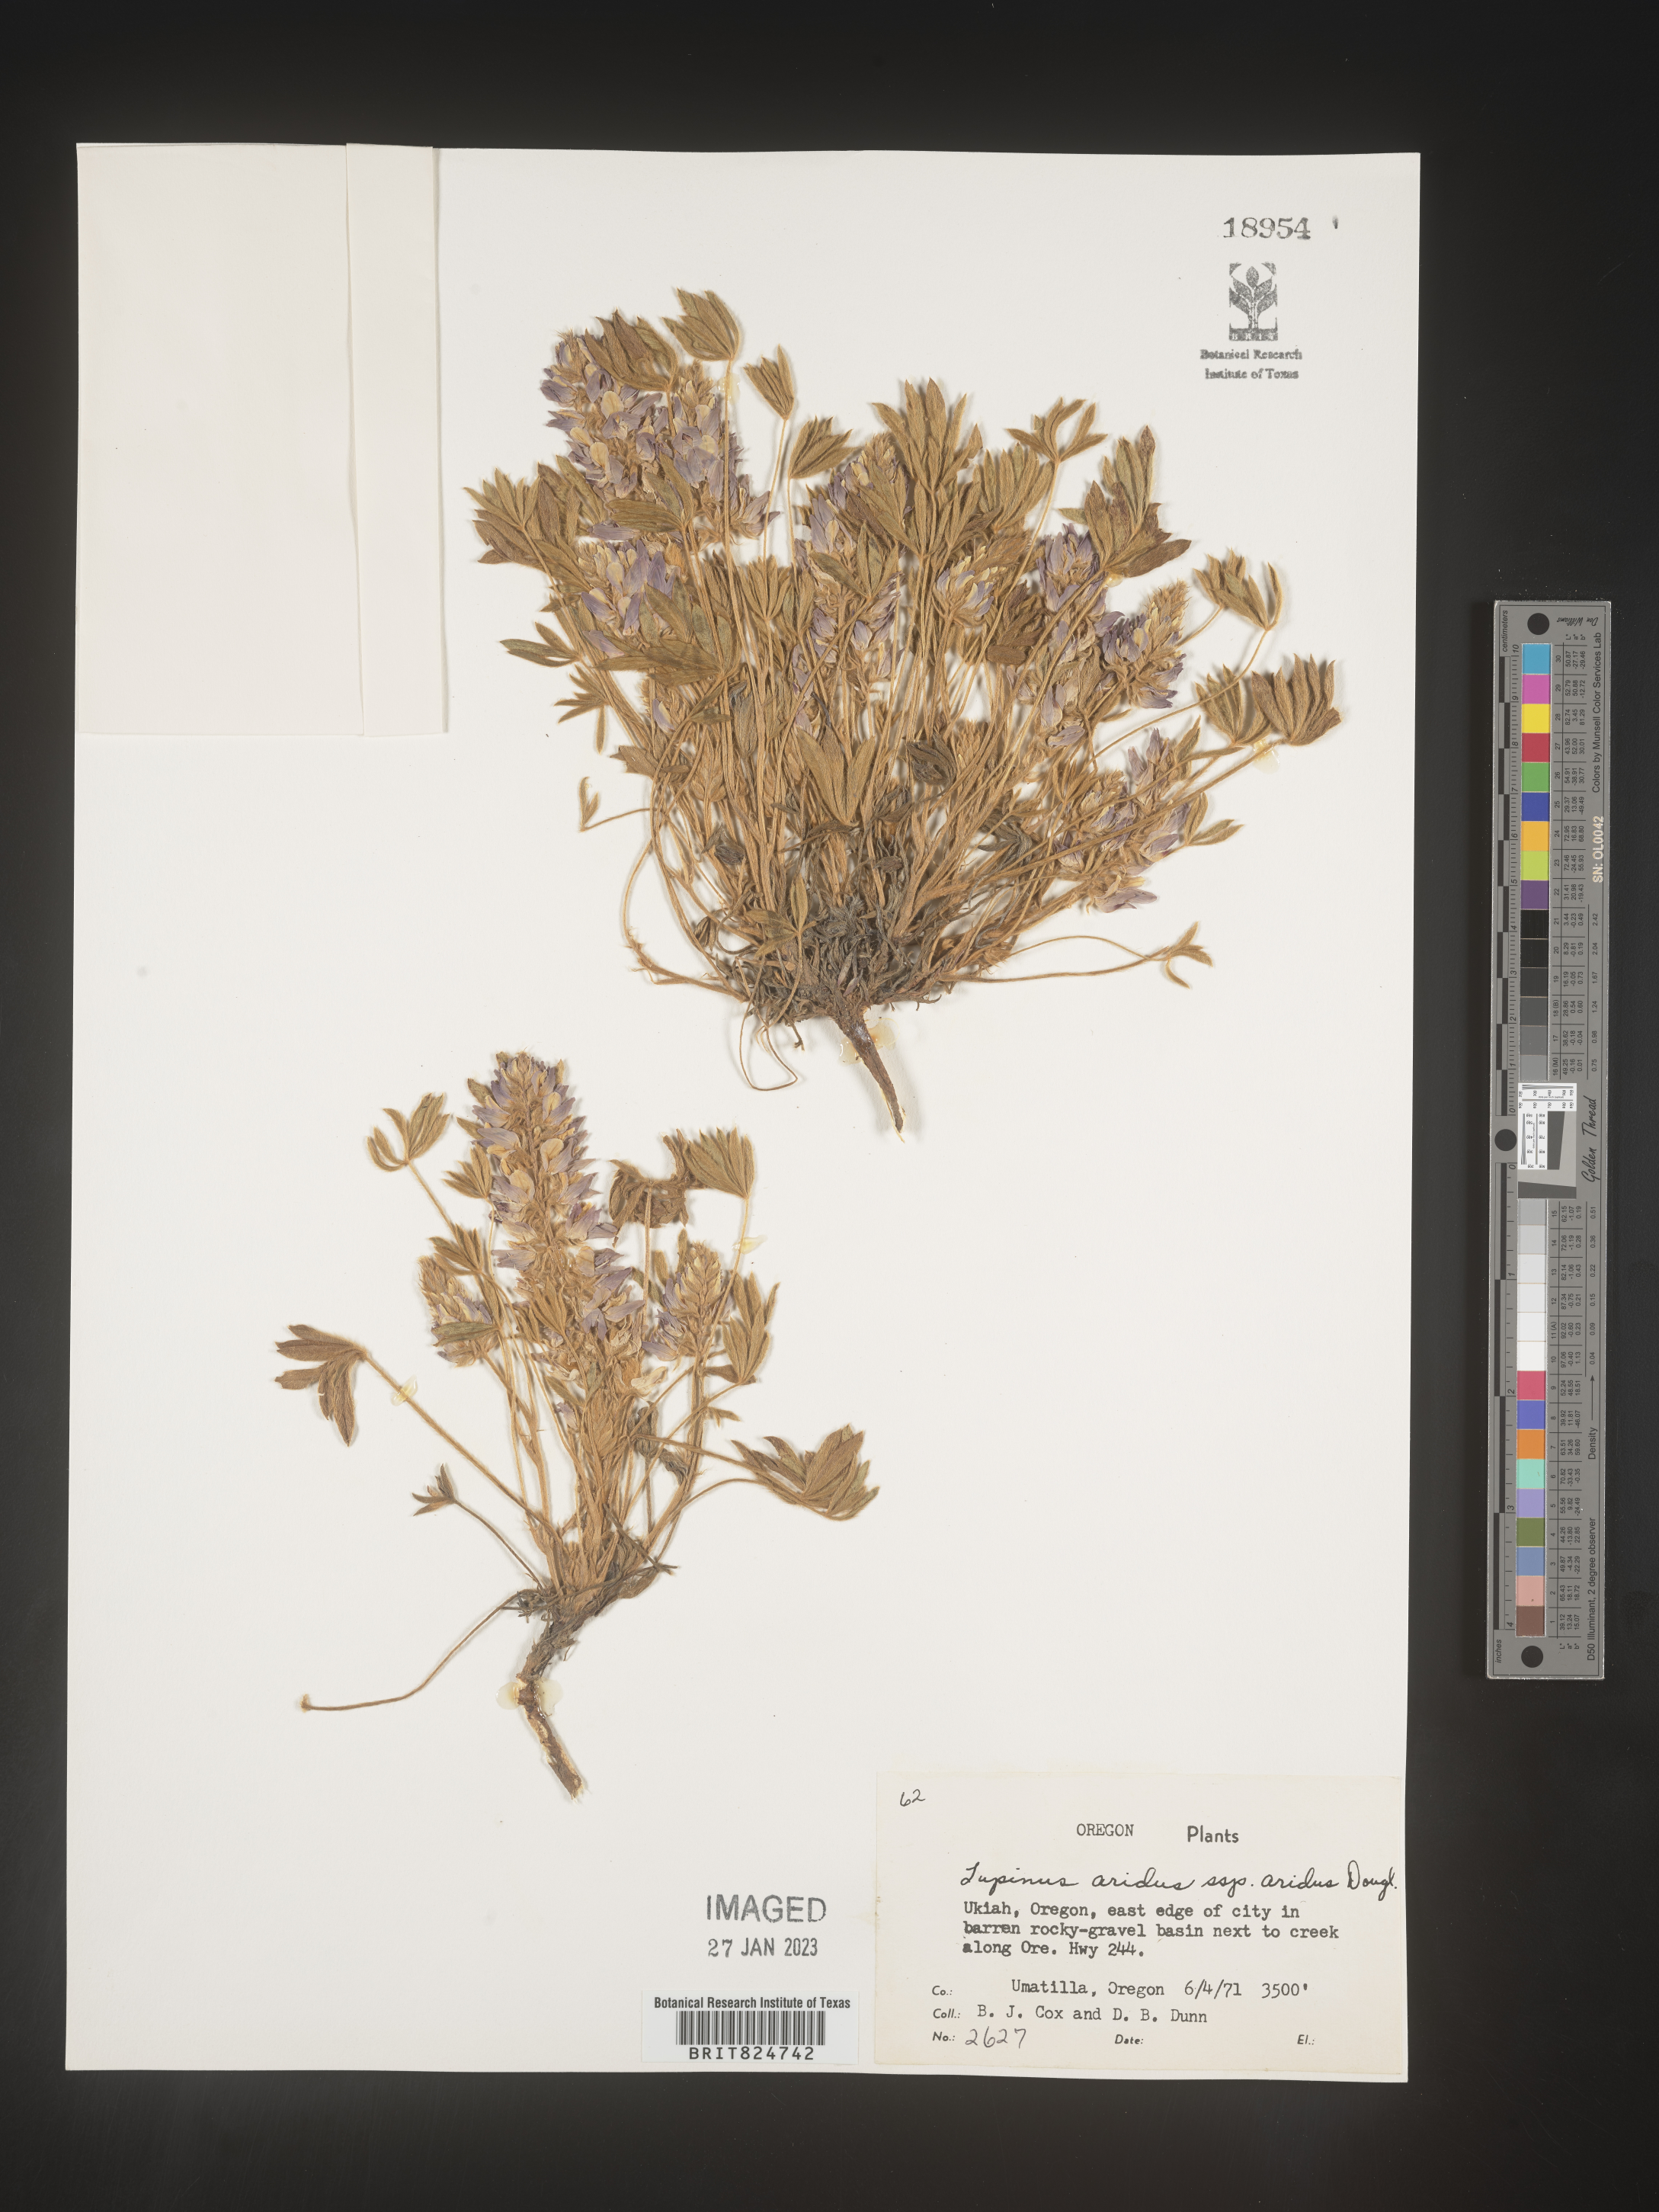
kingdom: Plantae
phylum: Tracheophyta
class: Magnoliopsida
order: Fabales
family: Fabaceae
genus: Lupinus
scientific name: Lupinus aridus
